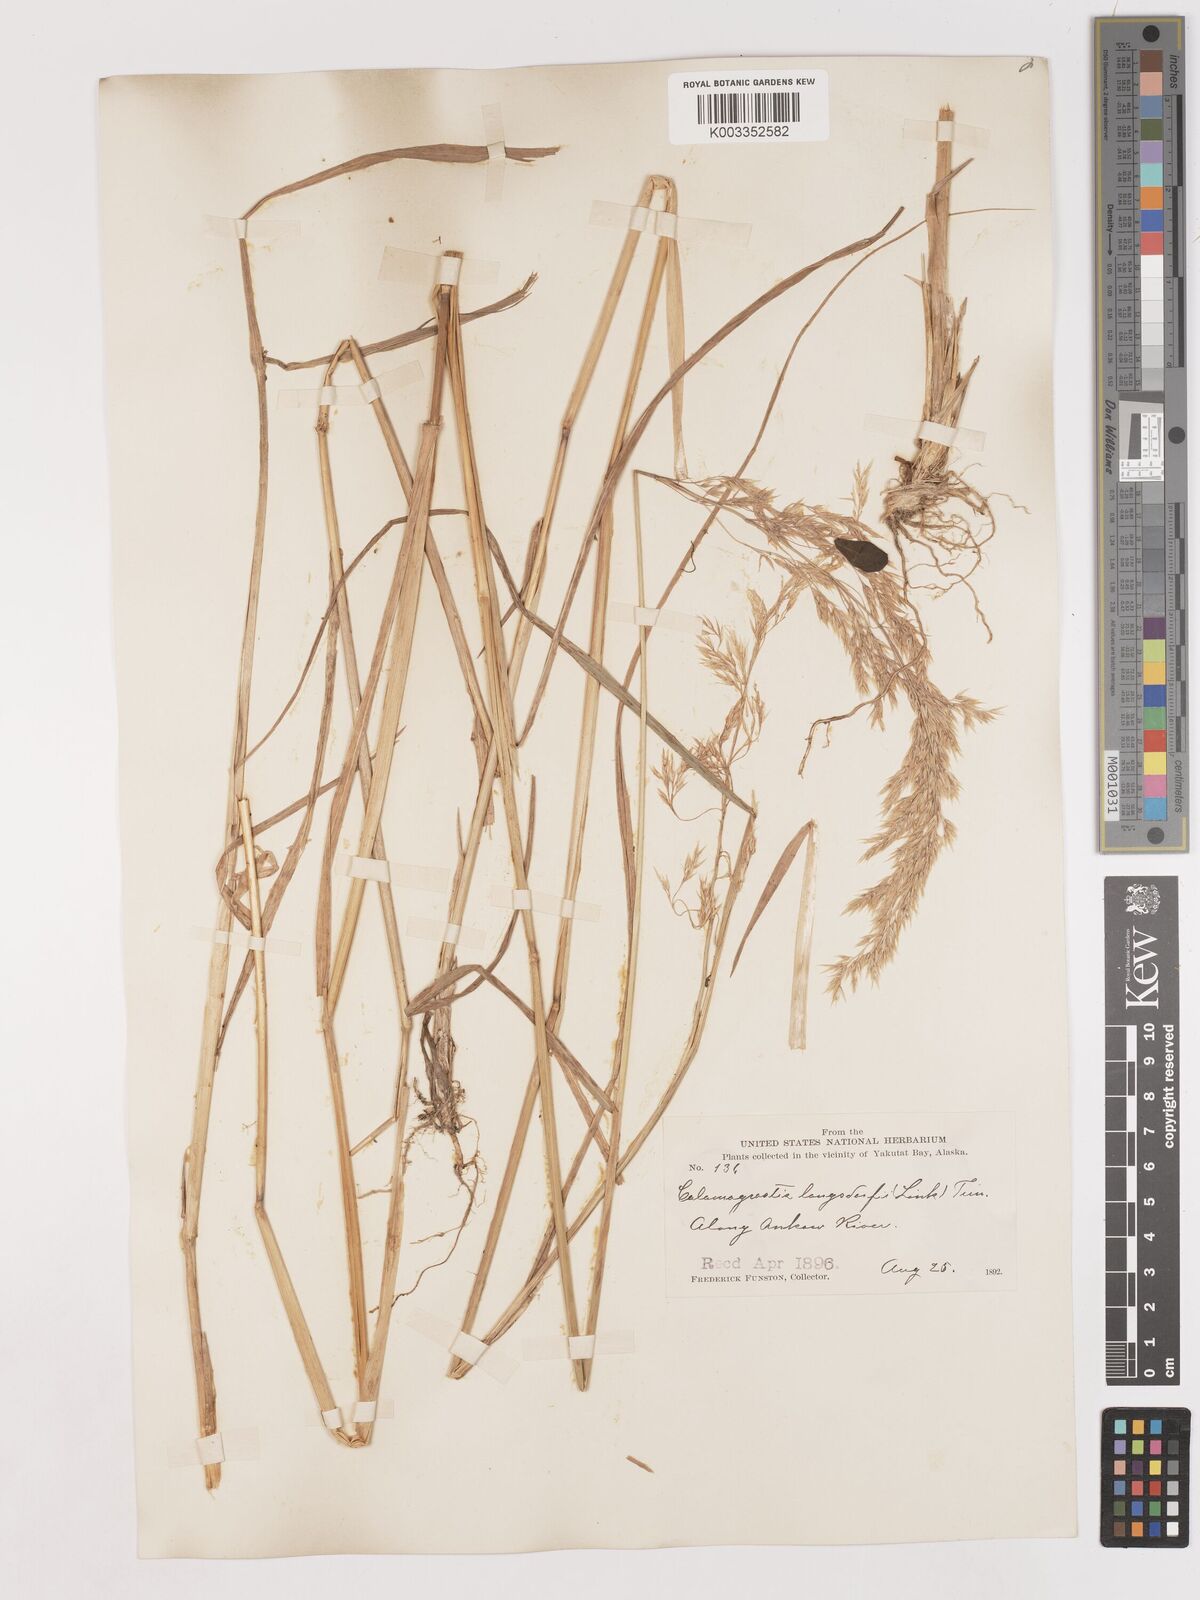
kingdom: Plantae
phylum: Tracheophyta
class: Liliopsida
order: Poales
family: Poaceae
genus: Calamagrostis
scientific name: Calamagrostis canadensis
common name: Canada bluejoint
